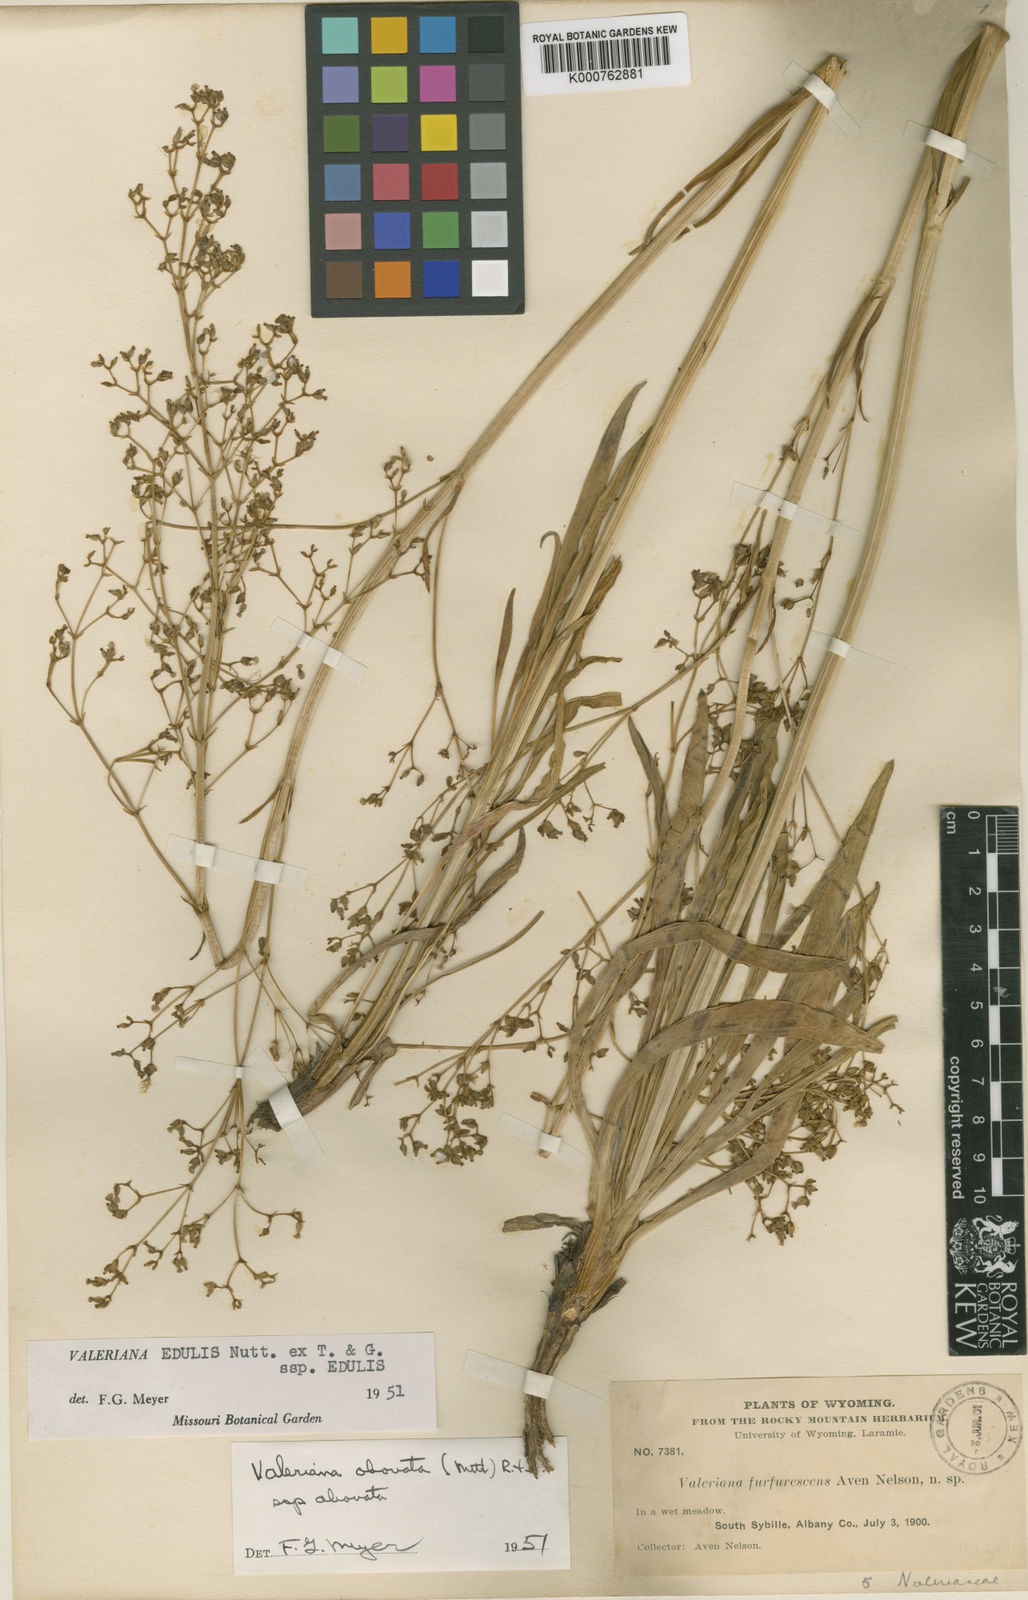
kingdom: Plantae
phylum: Tracheophyta
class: Magnoliopsida
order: Dipsacales
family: Caprifoliaceae
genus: Valeriana
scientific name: Valeriana edulis
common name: Taproot valerian
